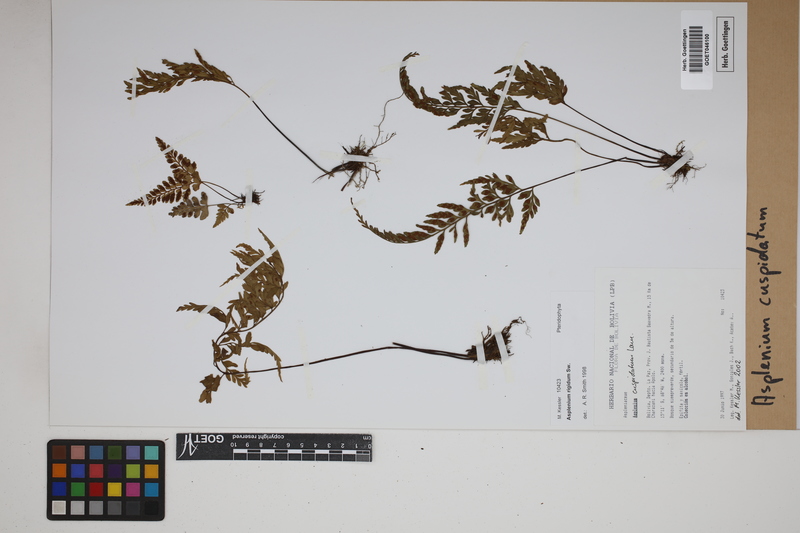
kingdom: Plantae
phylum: Tracheophyta
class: Polypodiopsida
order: Polypodiales
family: Aspleniaceae
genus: Asplenium
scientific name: Asplenium cuspidatum
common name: Eared spleenwort
